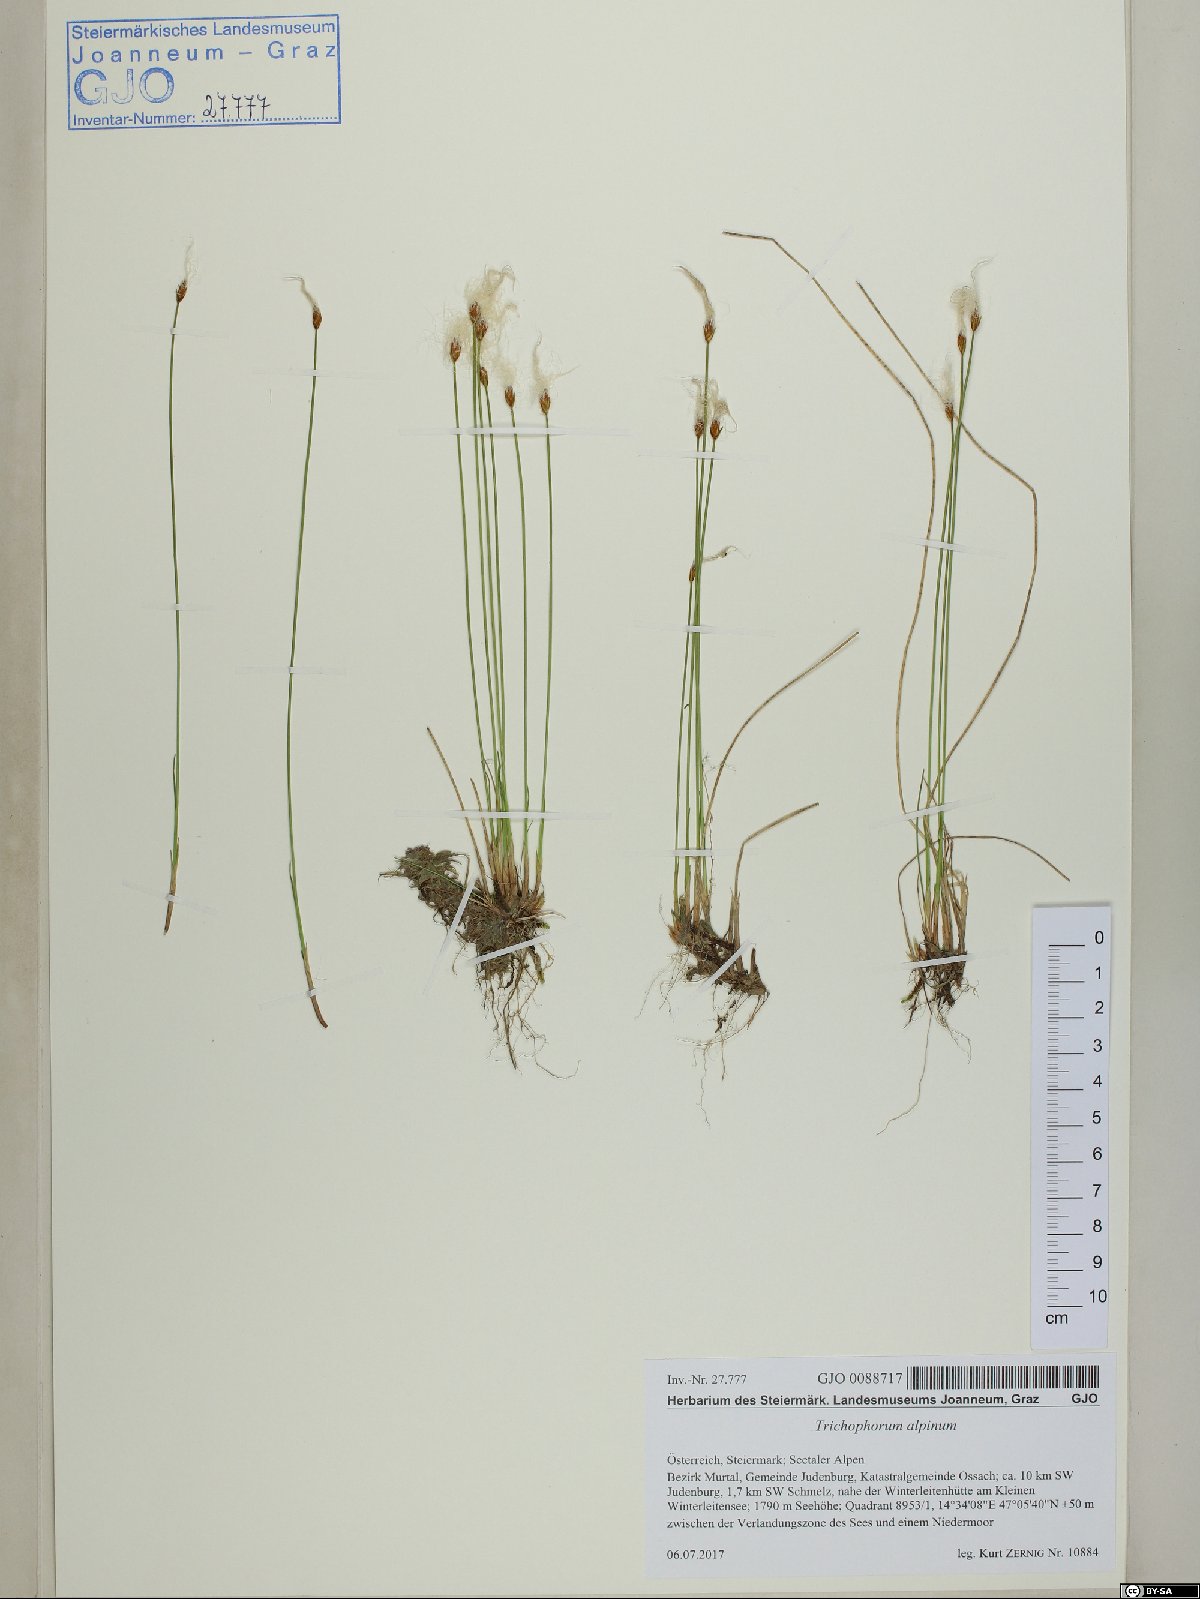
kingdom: Plantae
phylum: Tracheophyta
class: Liliopsida
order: Poales
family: Cyperaceae
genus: Trichophorum
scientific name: Trichophorum alpinum
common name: Alpine bulrush
